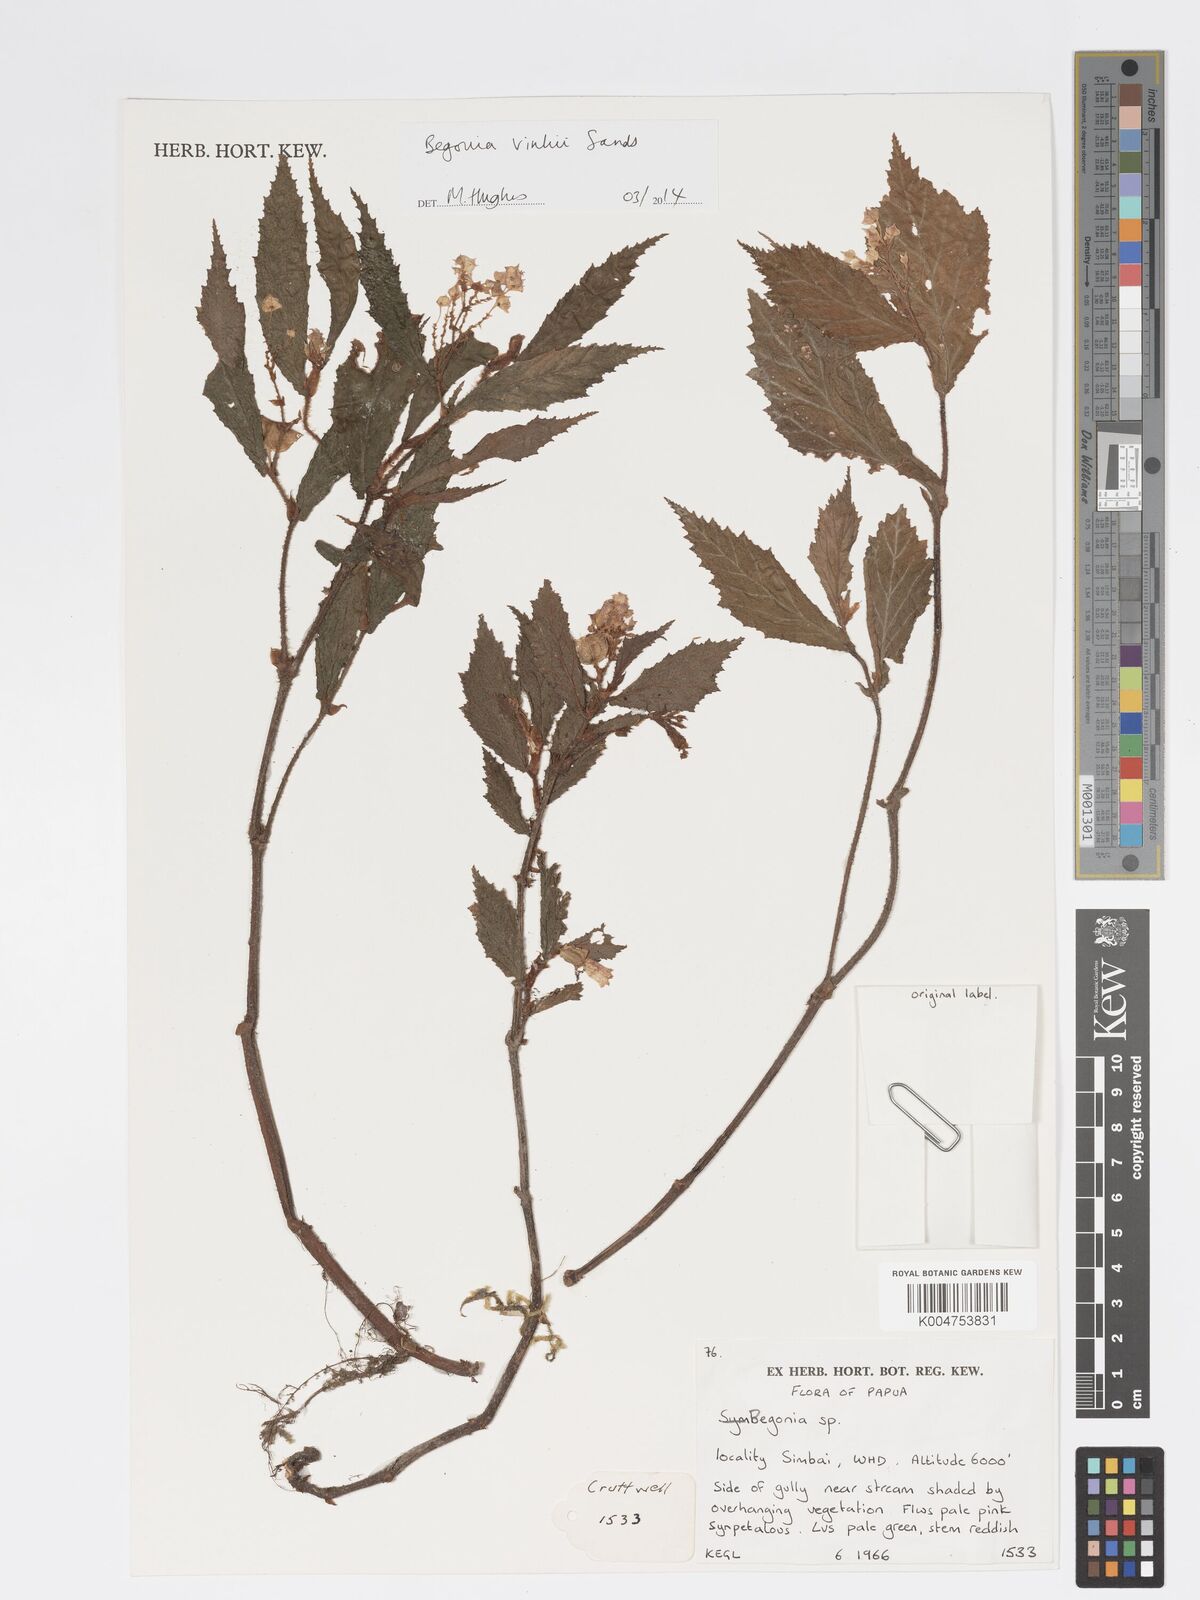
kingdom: Plantae
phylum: Tracheophyta
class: Magnoliopsida
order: Cucurbitales
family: Begoniaceae
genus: Begonia
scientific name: Begonia vinkii
